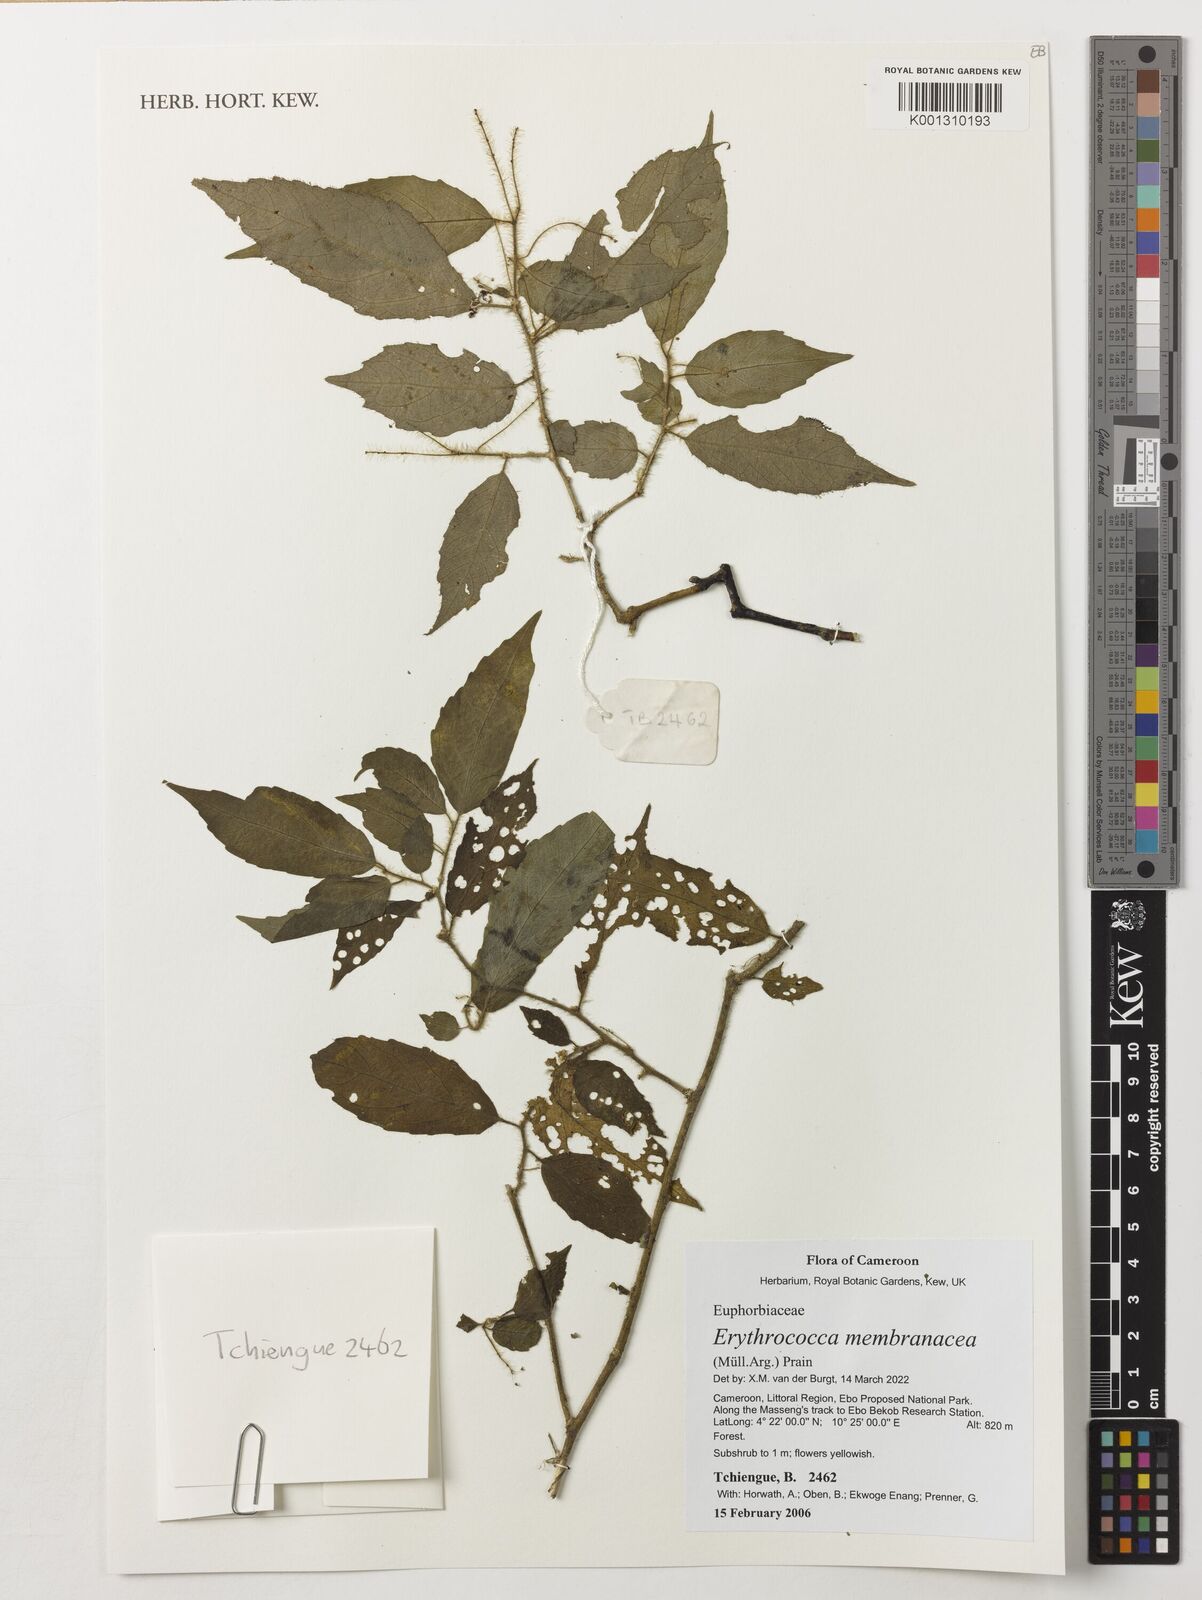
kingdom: Plantae
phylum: Tracheophyta
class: Magnoliopsida
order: Malpighiales
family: Euphorbiaceae
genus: Erythrococca
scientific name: Erythrococca membranacea
